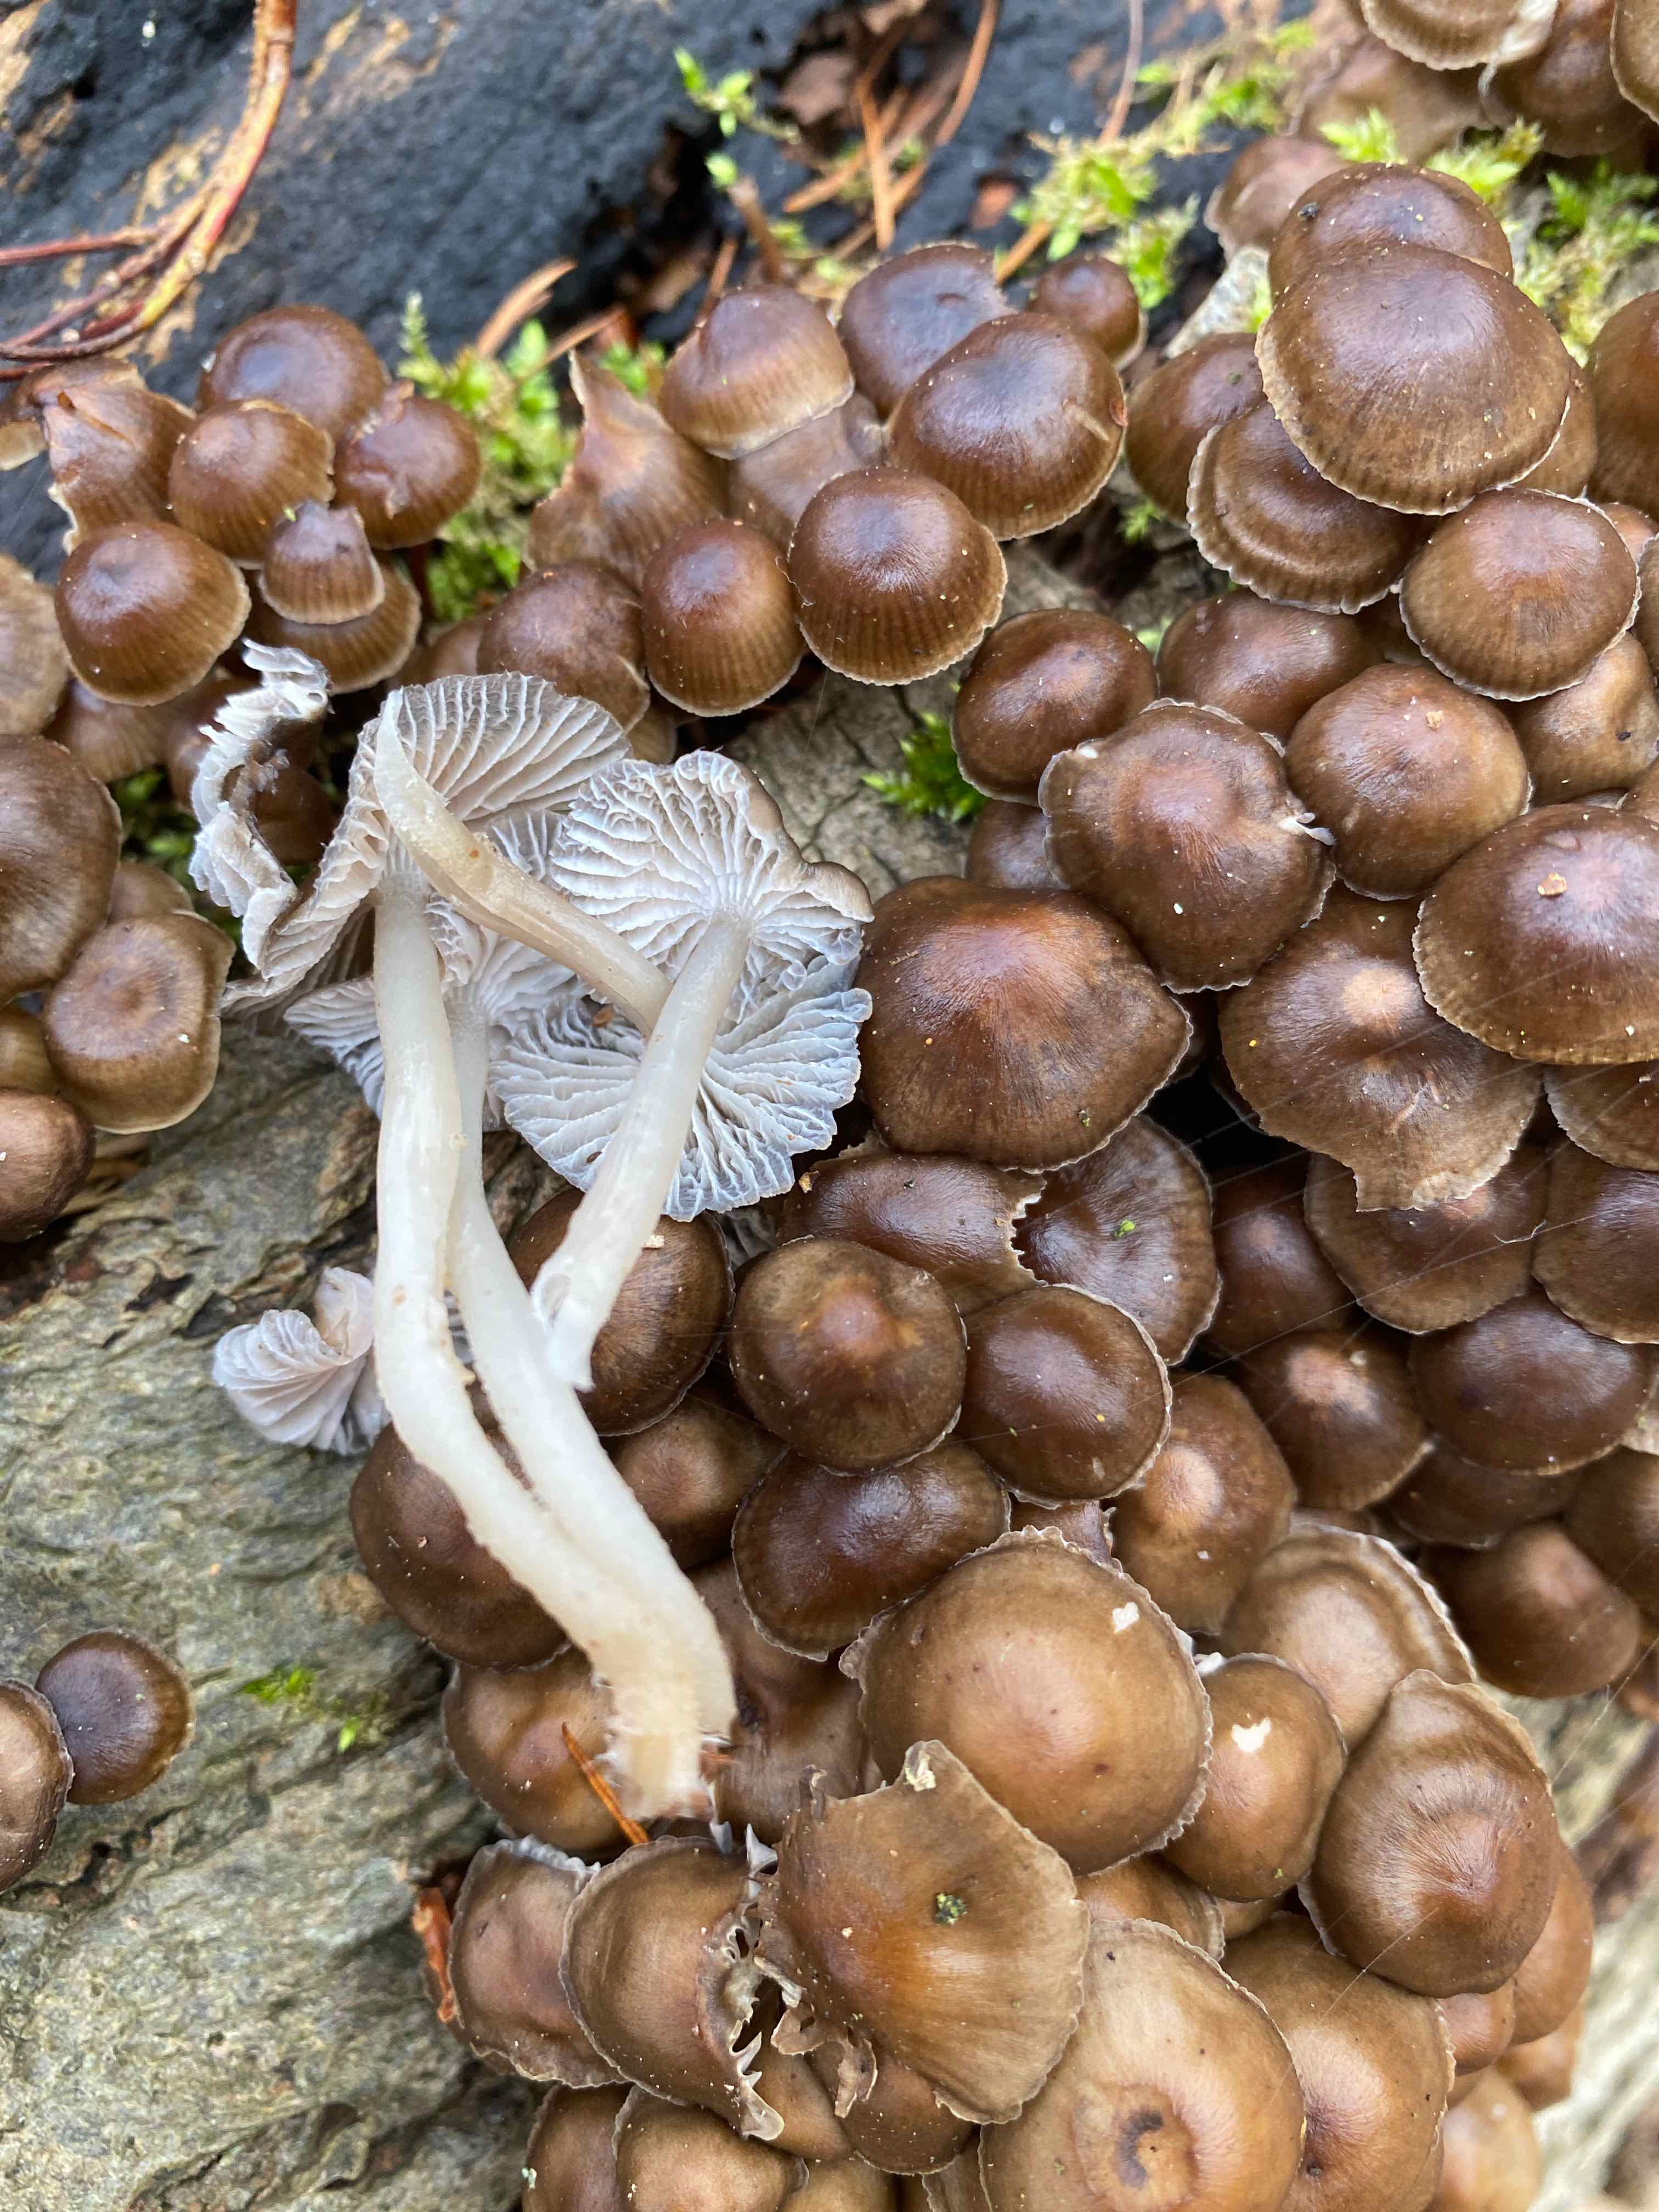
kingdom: Fungi
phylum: Basidiomycota
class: Agaricomycetes
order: Agaricales
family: Mycenaceae
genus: Mycena
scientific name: Mycena tintinnabulum
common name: vinter-huesvamp
